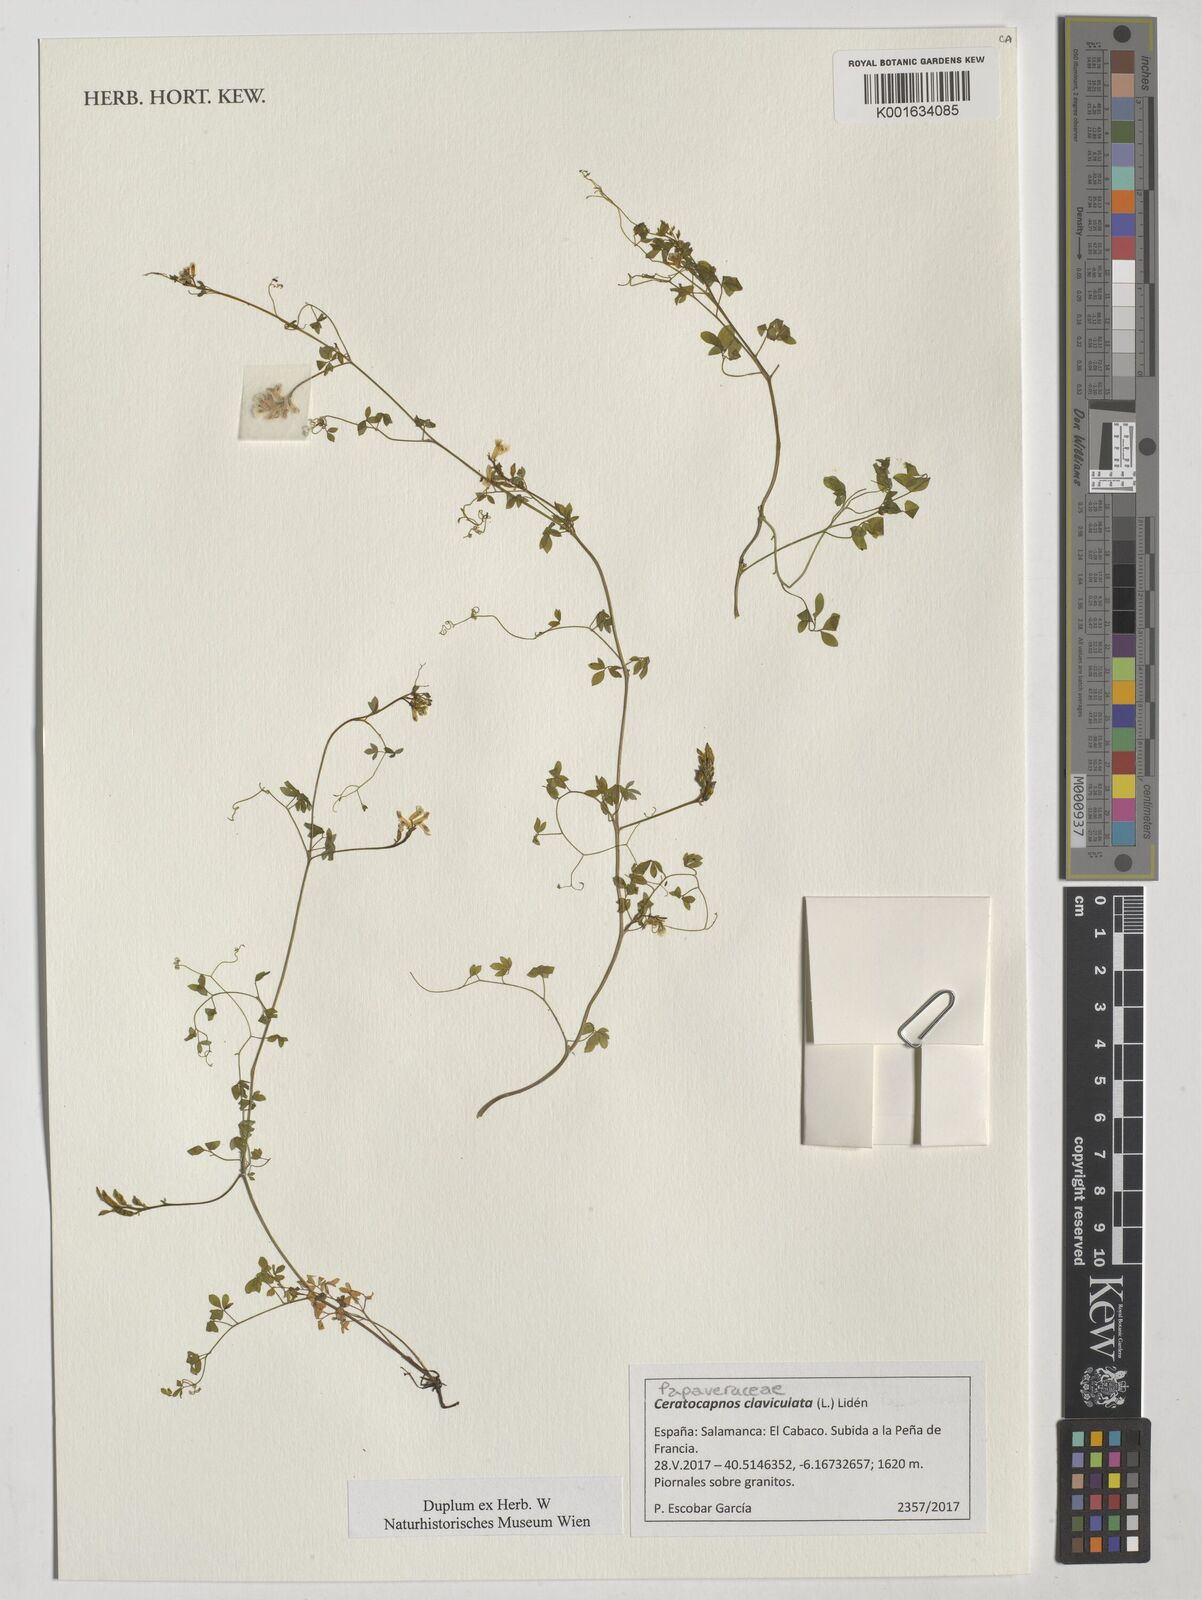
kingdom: Plantae
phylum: Tracheophyta
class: Magnoliopsida
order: Ranunculales
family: Papaveraceae
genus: Ceratocapnos
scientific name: Ceratocapnos claviculata
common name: Climbing corydalis
